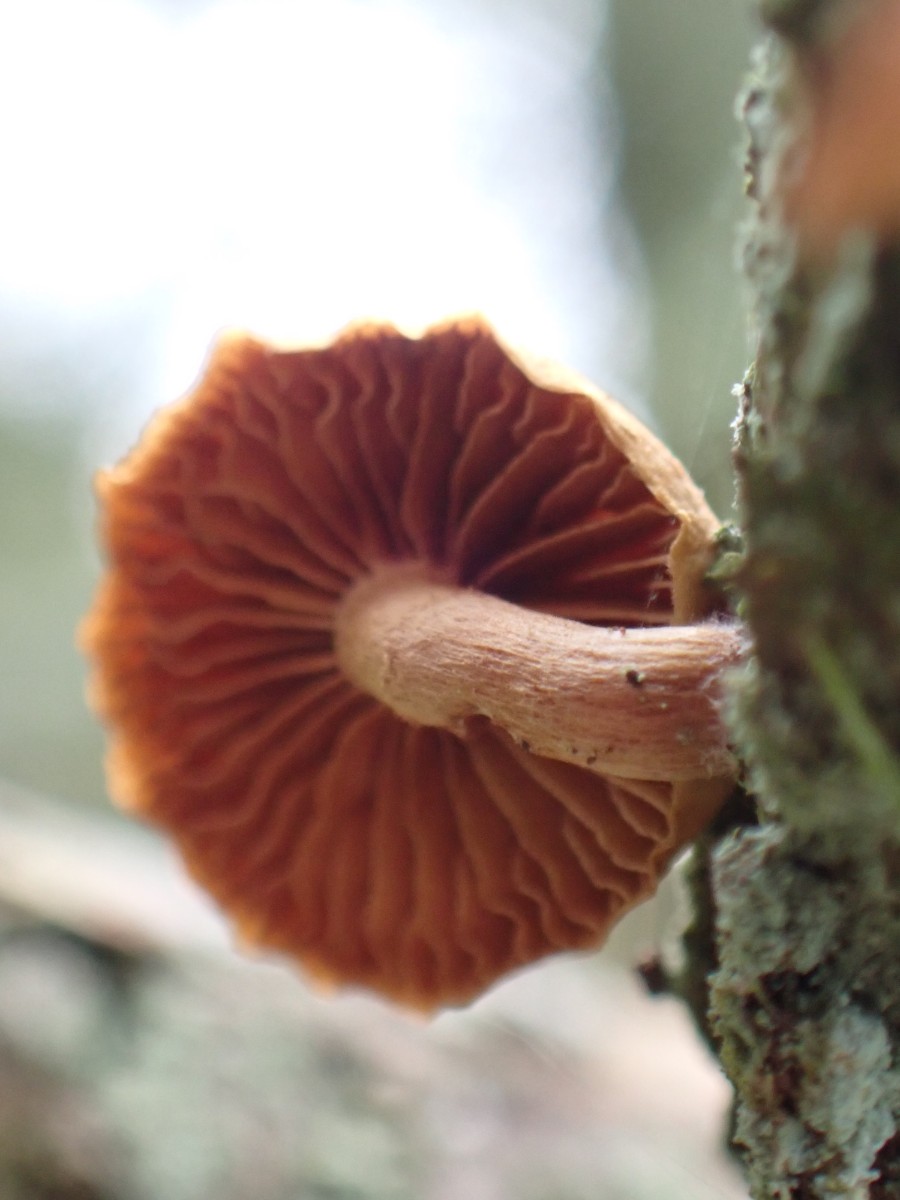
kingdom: Fungi
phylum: Basidiomycota
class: Agaricomycetes
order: Agaricales
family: Tubariaceae
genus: Tubaria
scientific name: Tubaria
